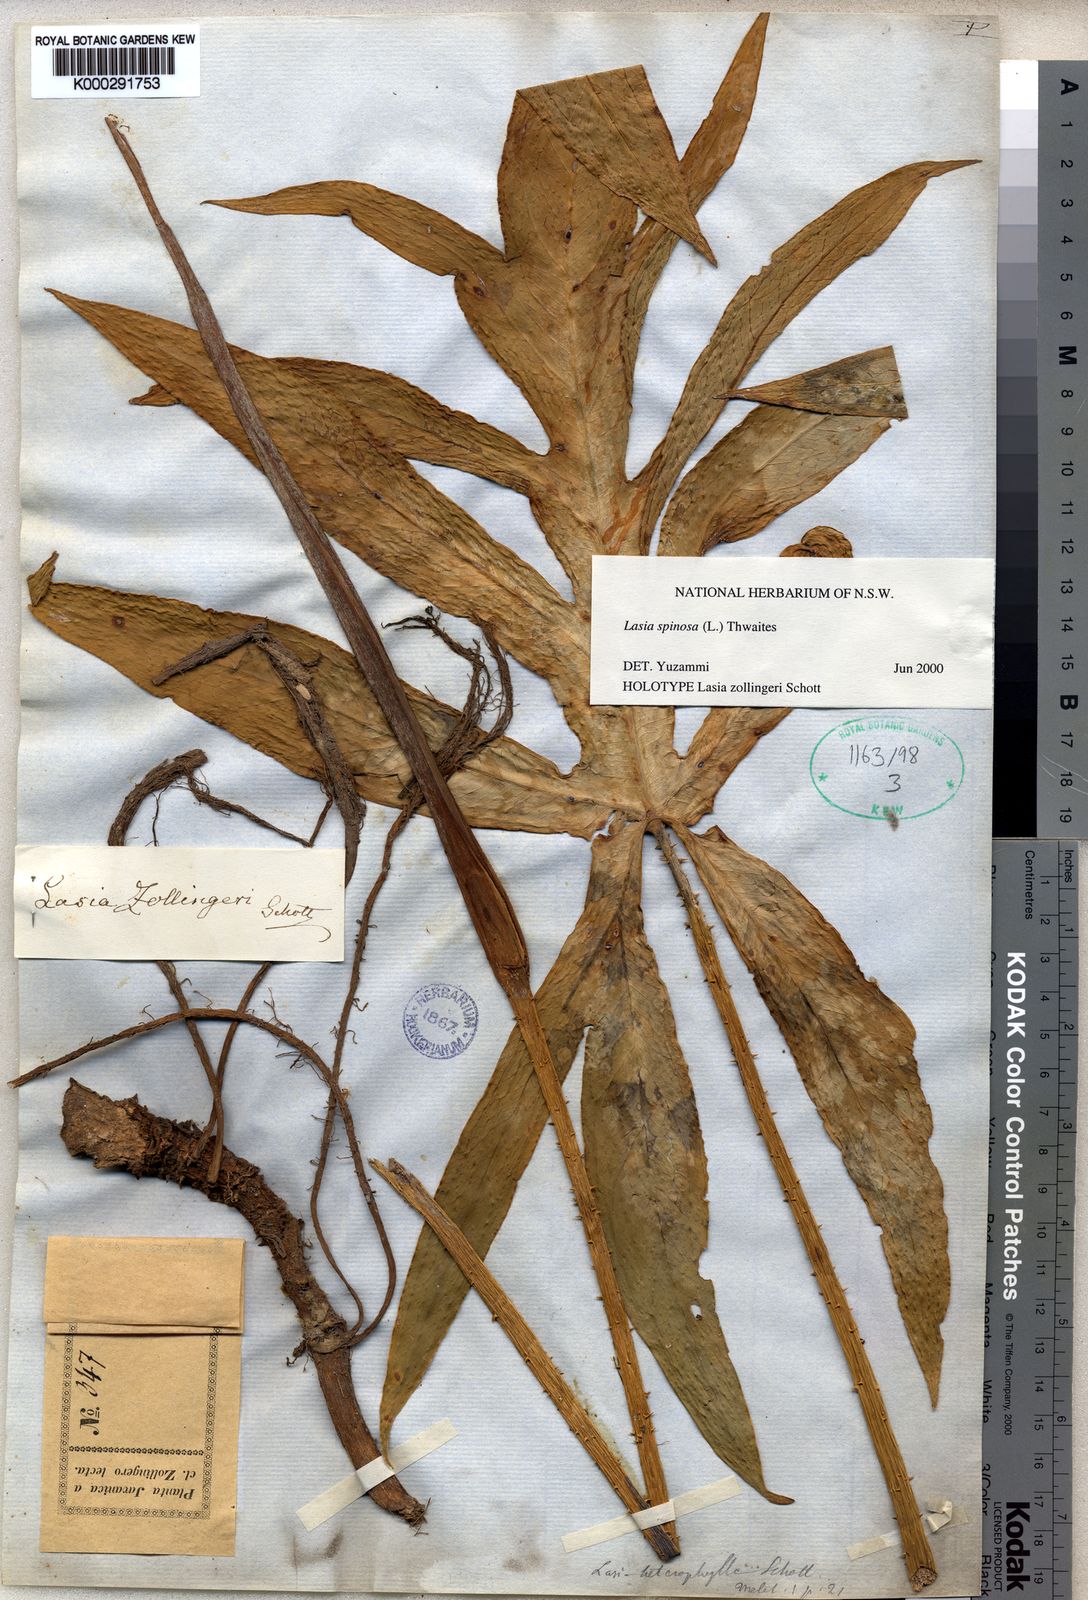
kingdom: Plantae
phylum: Tracheophyta
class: Liliopsida
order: Alismatales
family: Araceae
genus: Lasia
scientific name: Lasia spinosa
